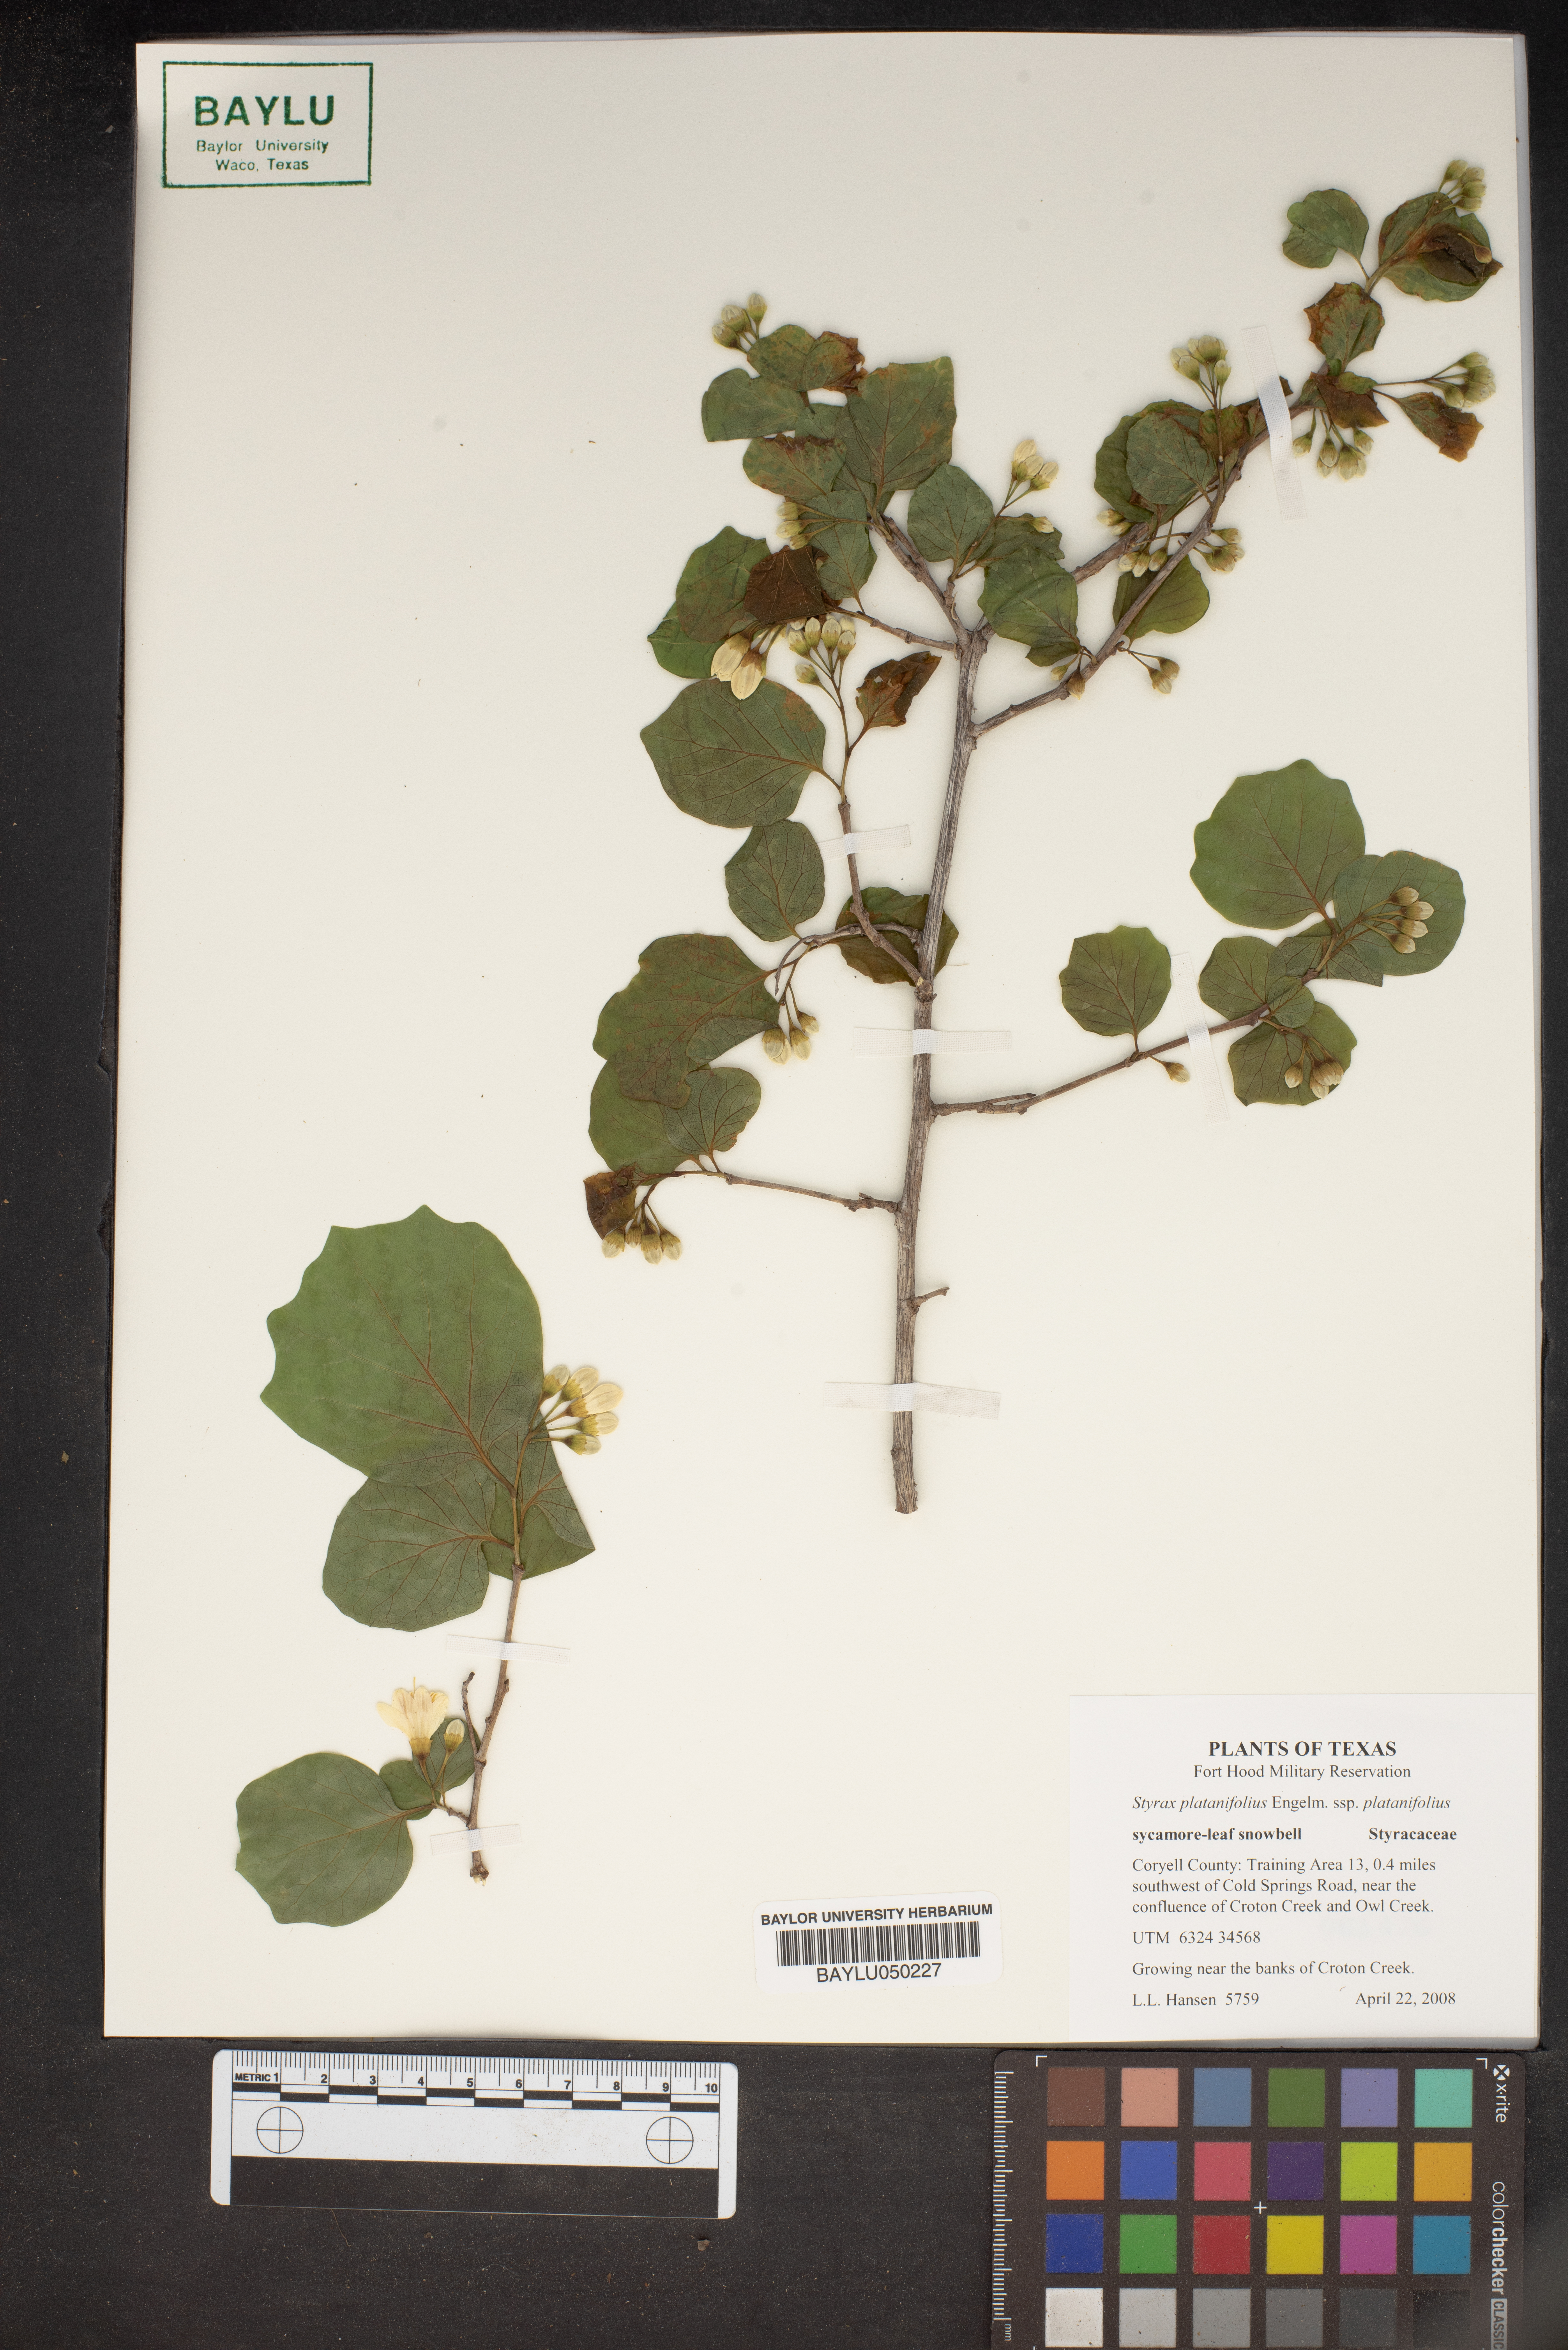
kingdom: Plantae
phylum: Tracheophyta
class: Magnoliopsida
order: Ericales
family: Styracaceae
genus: Styrax
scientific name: Styrax platanifolius
